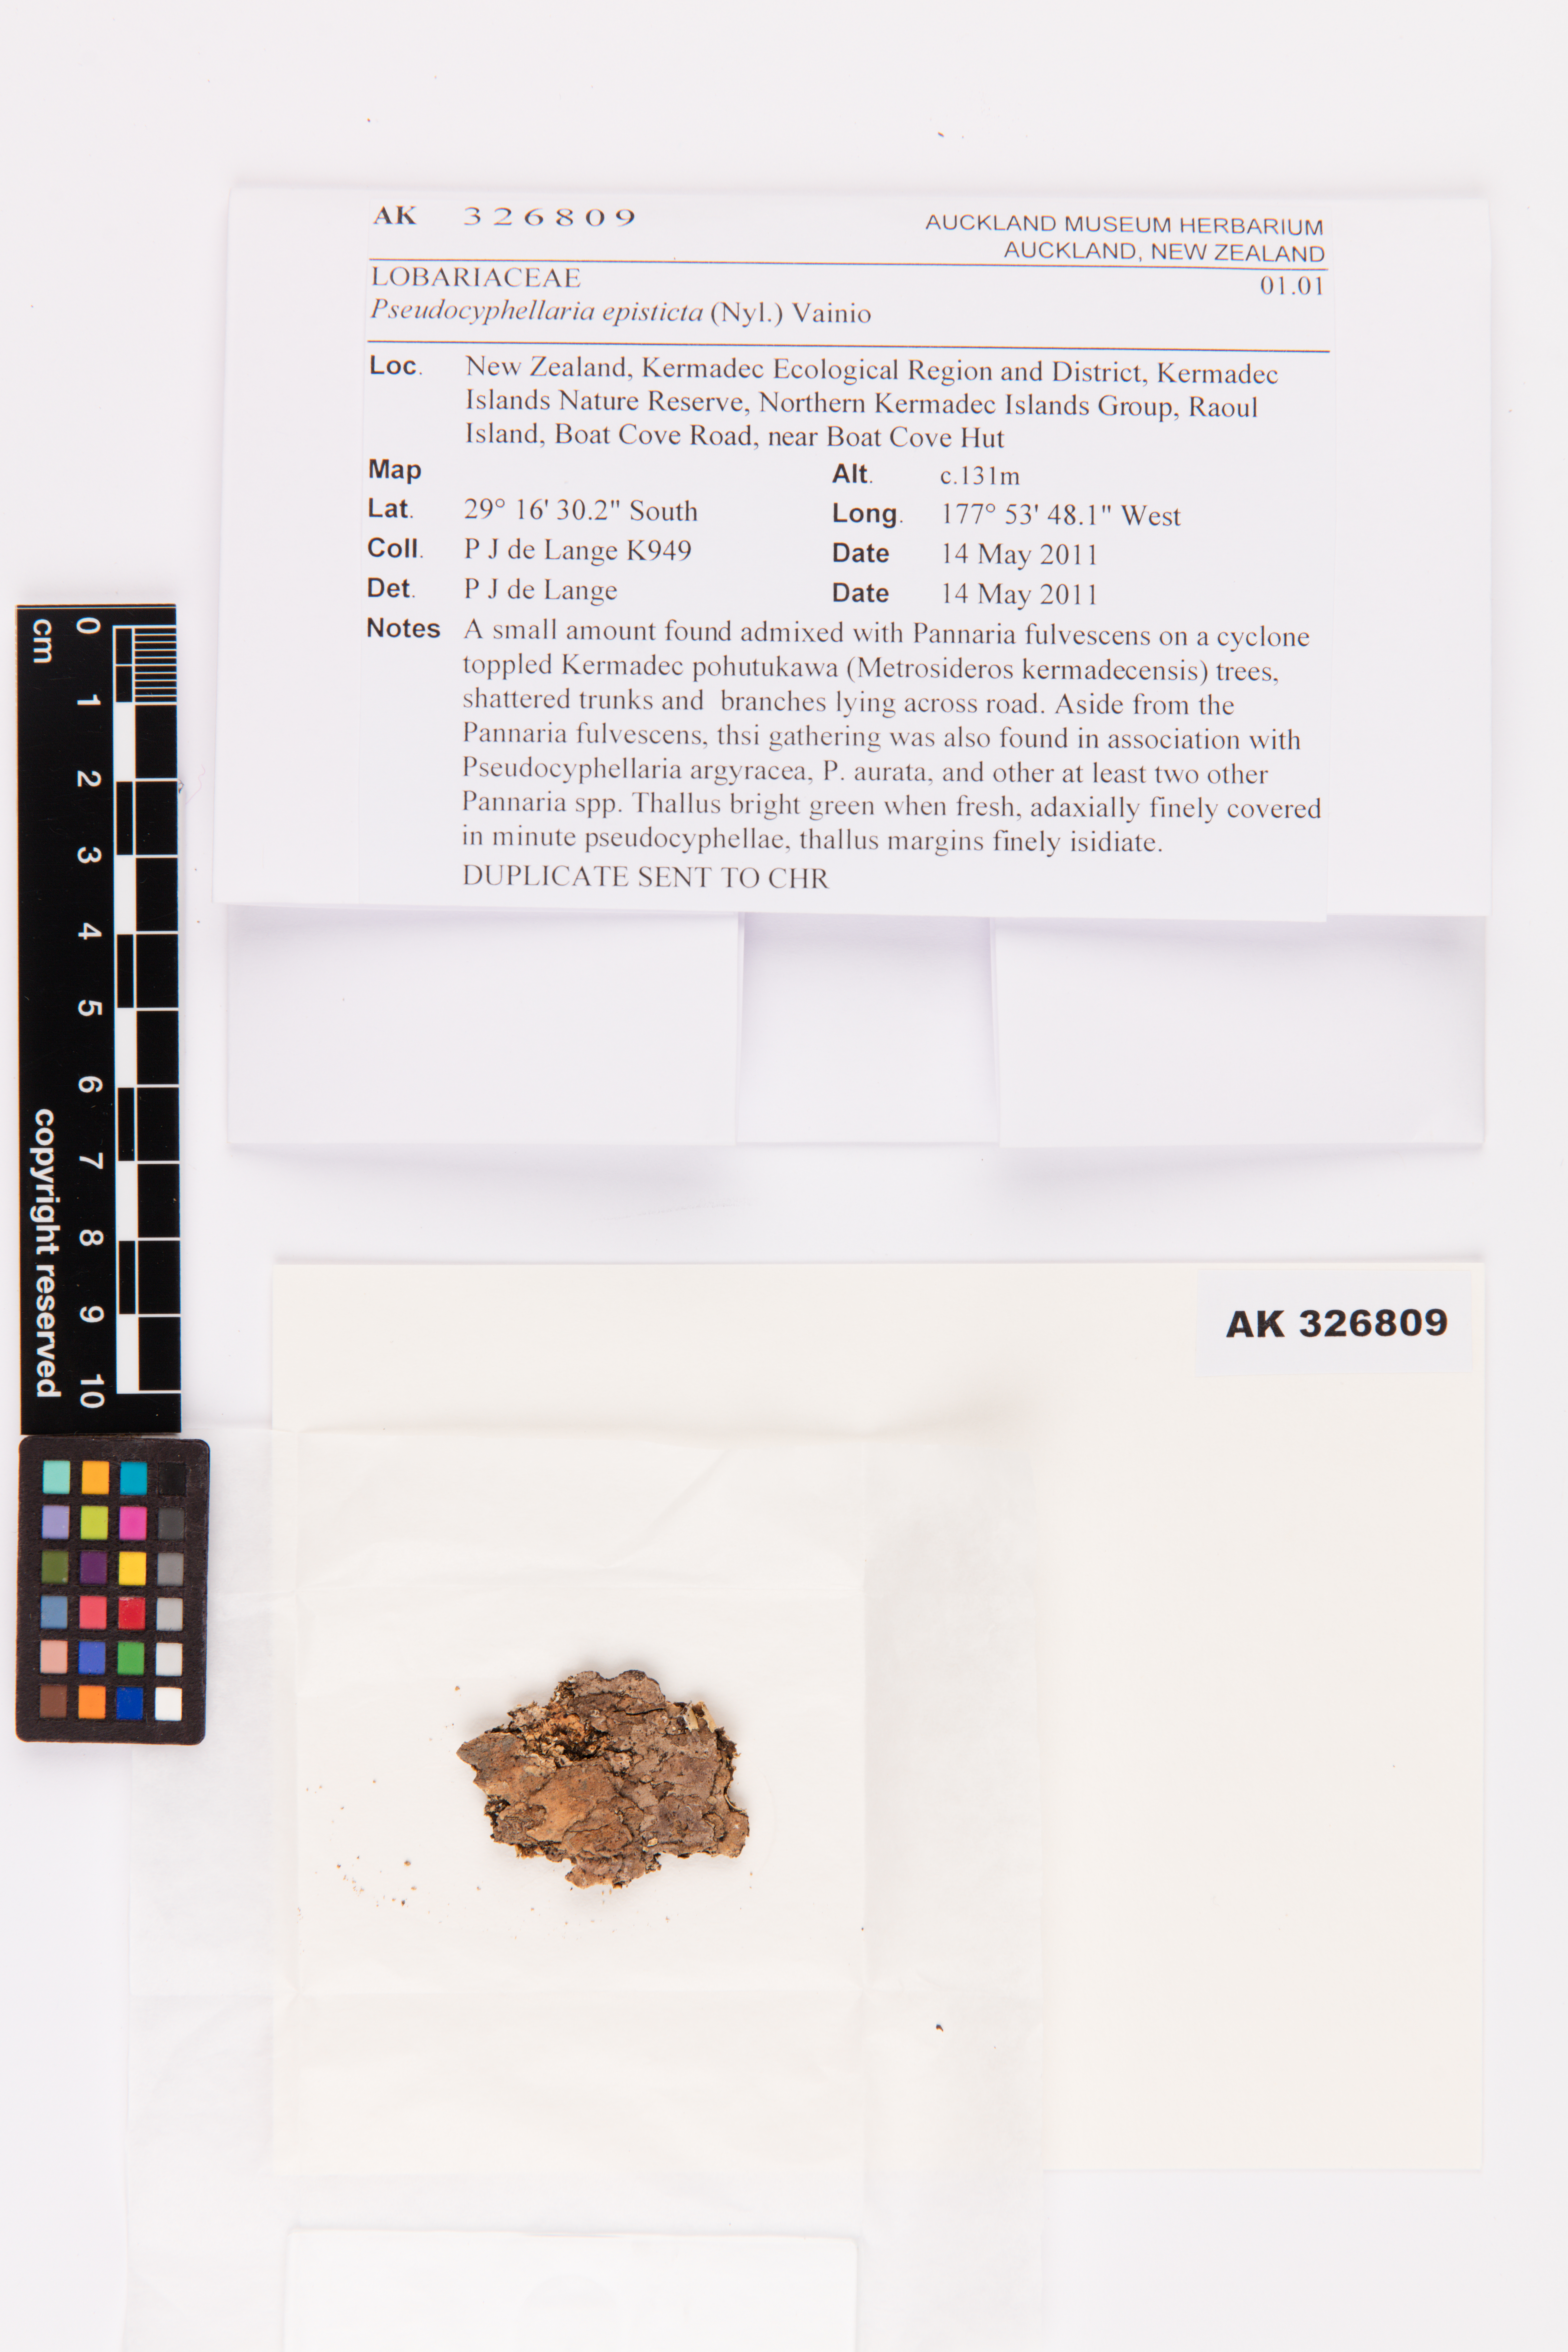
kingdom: Fungi
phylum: Ascomycota
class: Lecanoromycetes
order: Peltigerales
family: Lobariaceae
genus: Pseudocyphellaria
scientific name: Pseudocyphellaria episticta
